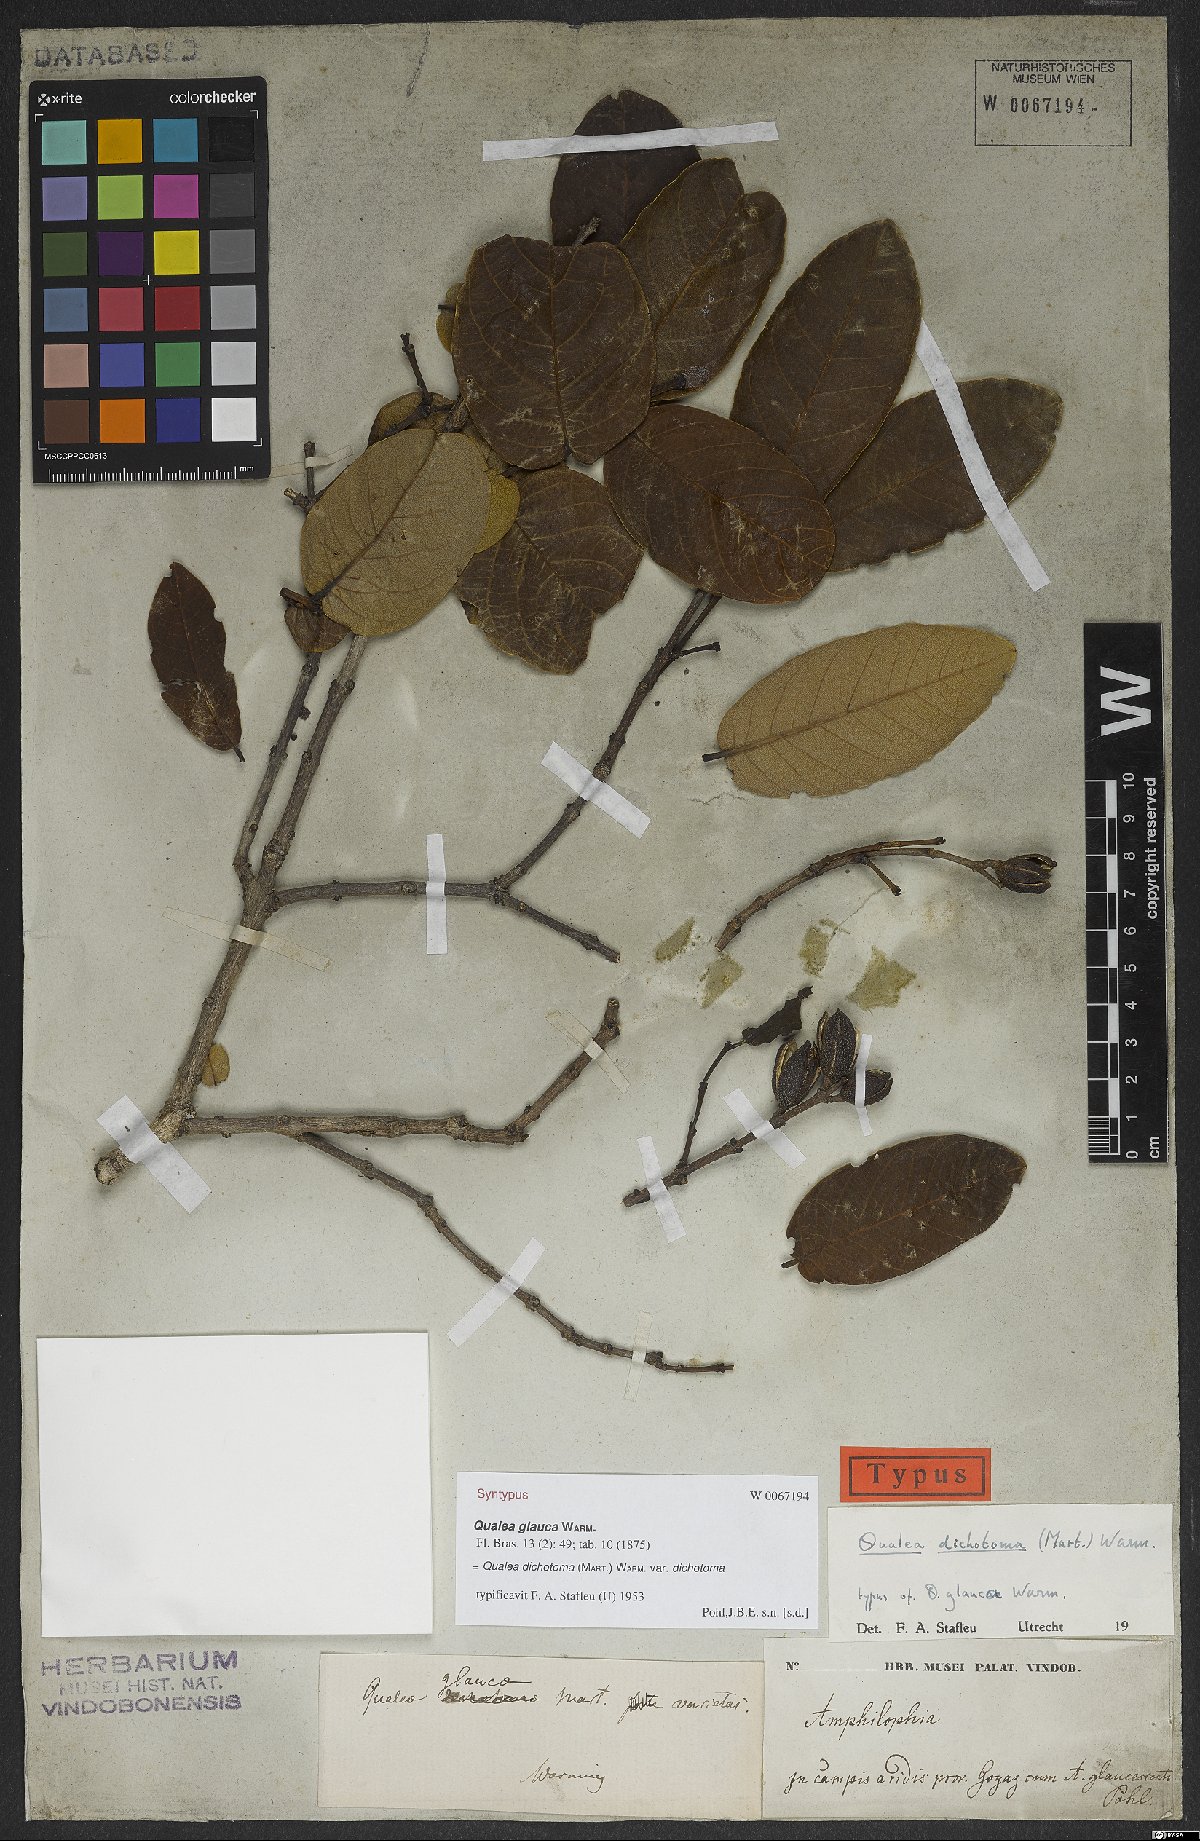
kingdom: Plantae
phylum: Tracheophyta
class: Magnoliopsida
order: Myrtales
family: Vochysiaceae
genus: Qualea
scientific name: Qualea cordata
